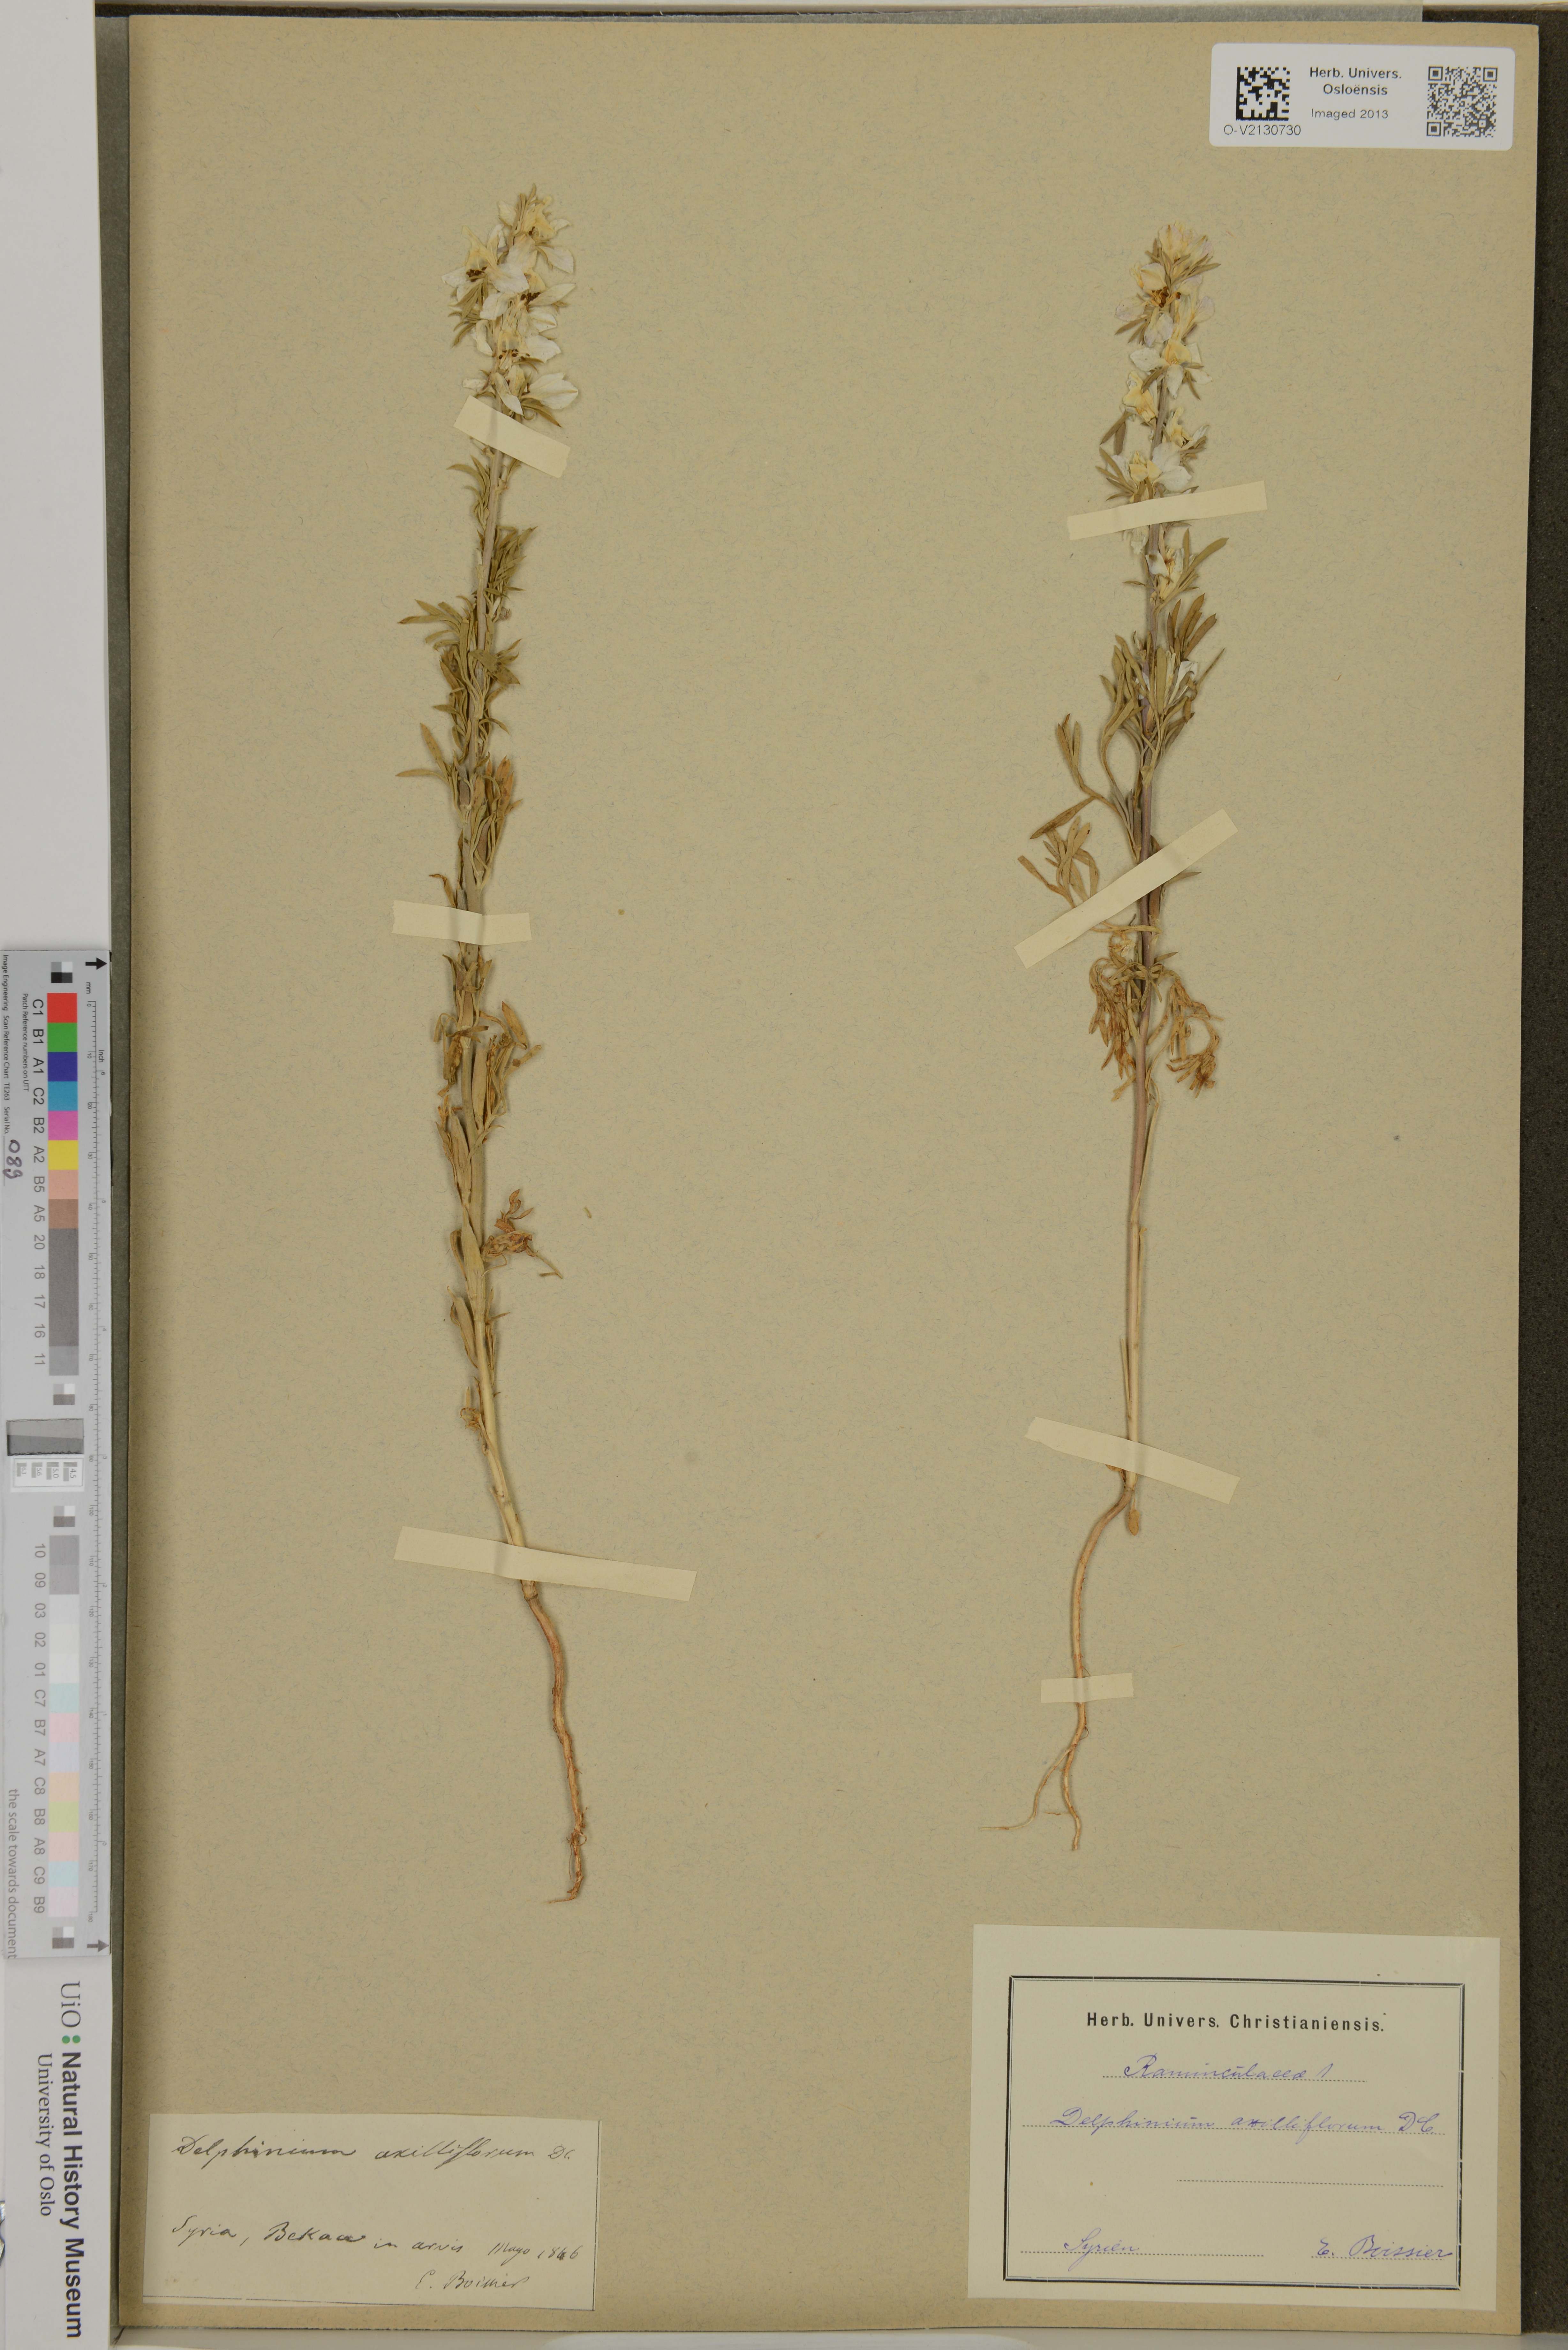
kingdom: Plantae
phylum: Tracheophyta
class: Magnoliopsida
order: Ranunculales
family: Ranunculaceae
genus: Delphinium
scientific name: Delphinium axilliflorum
